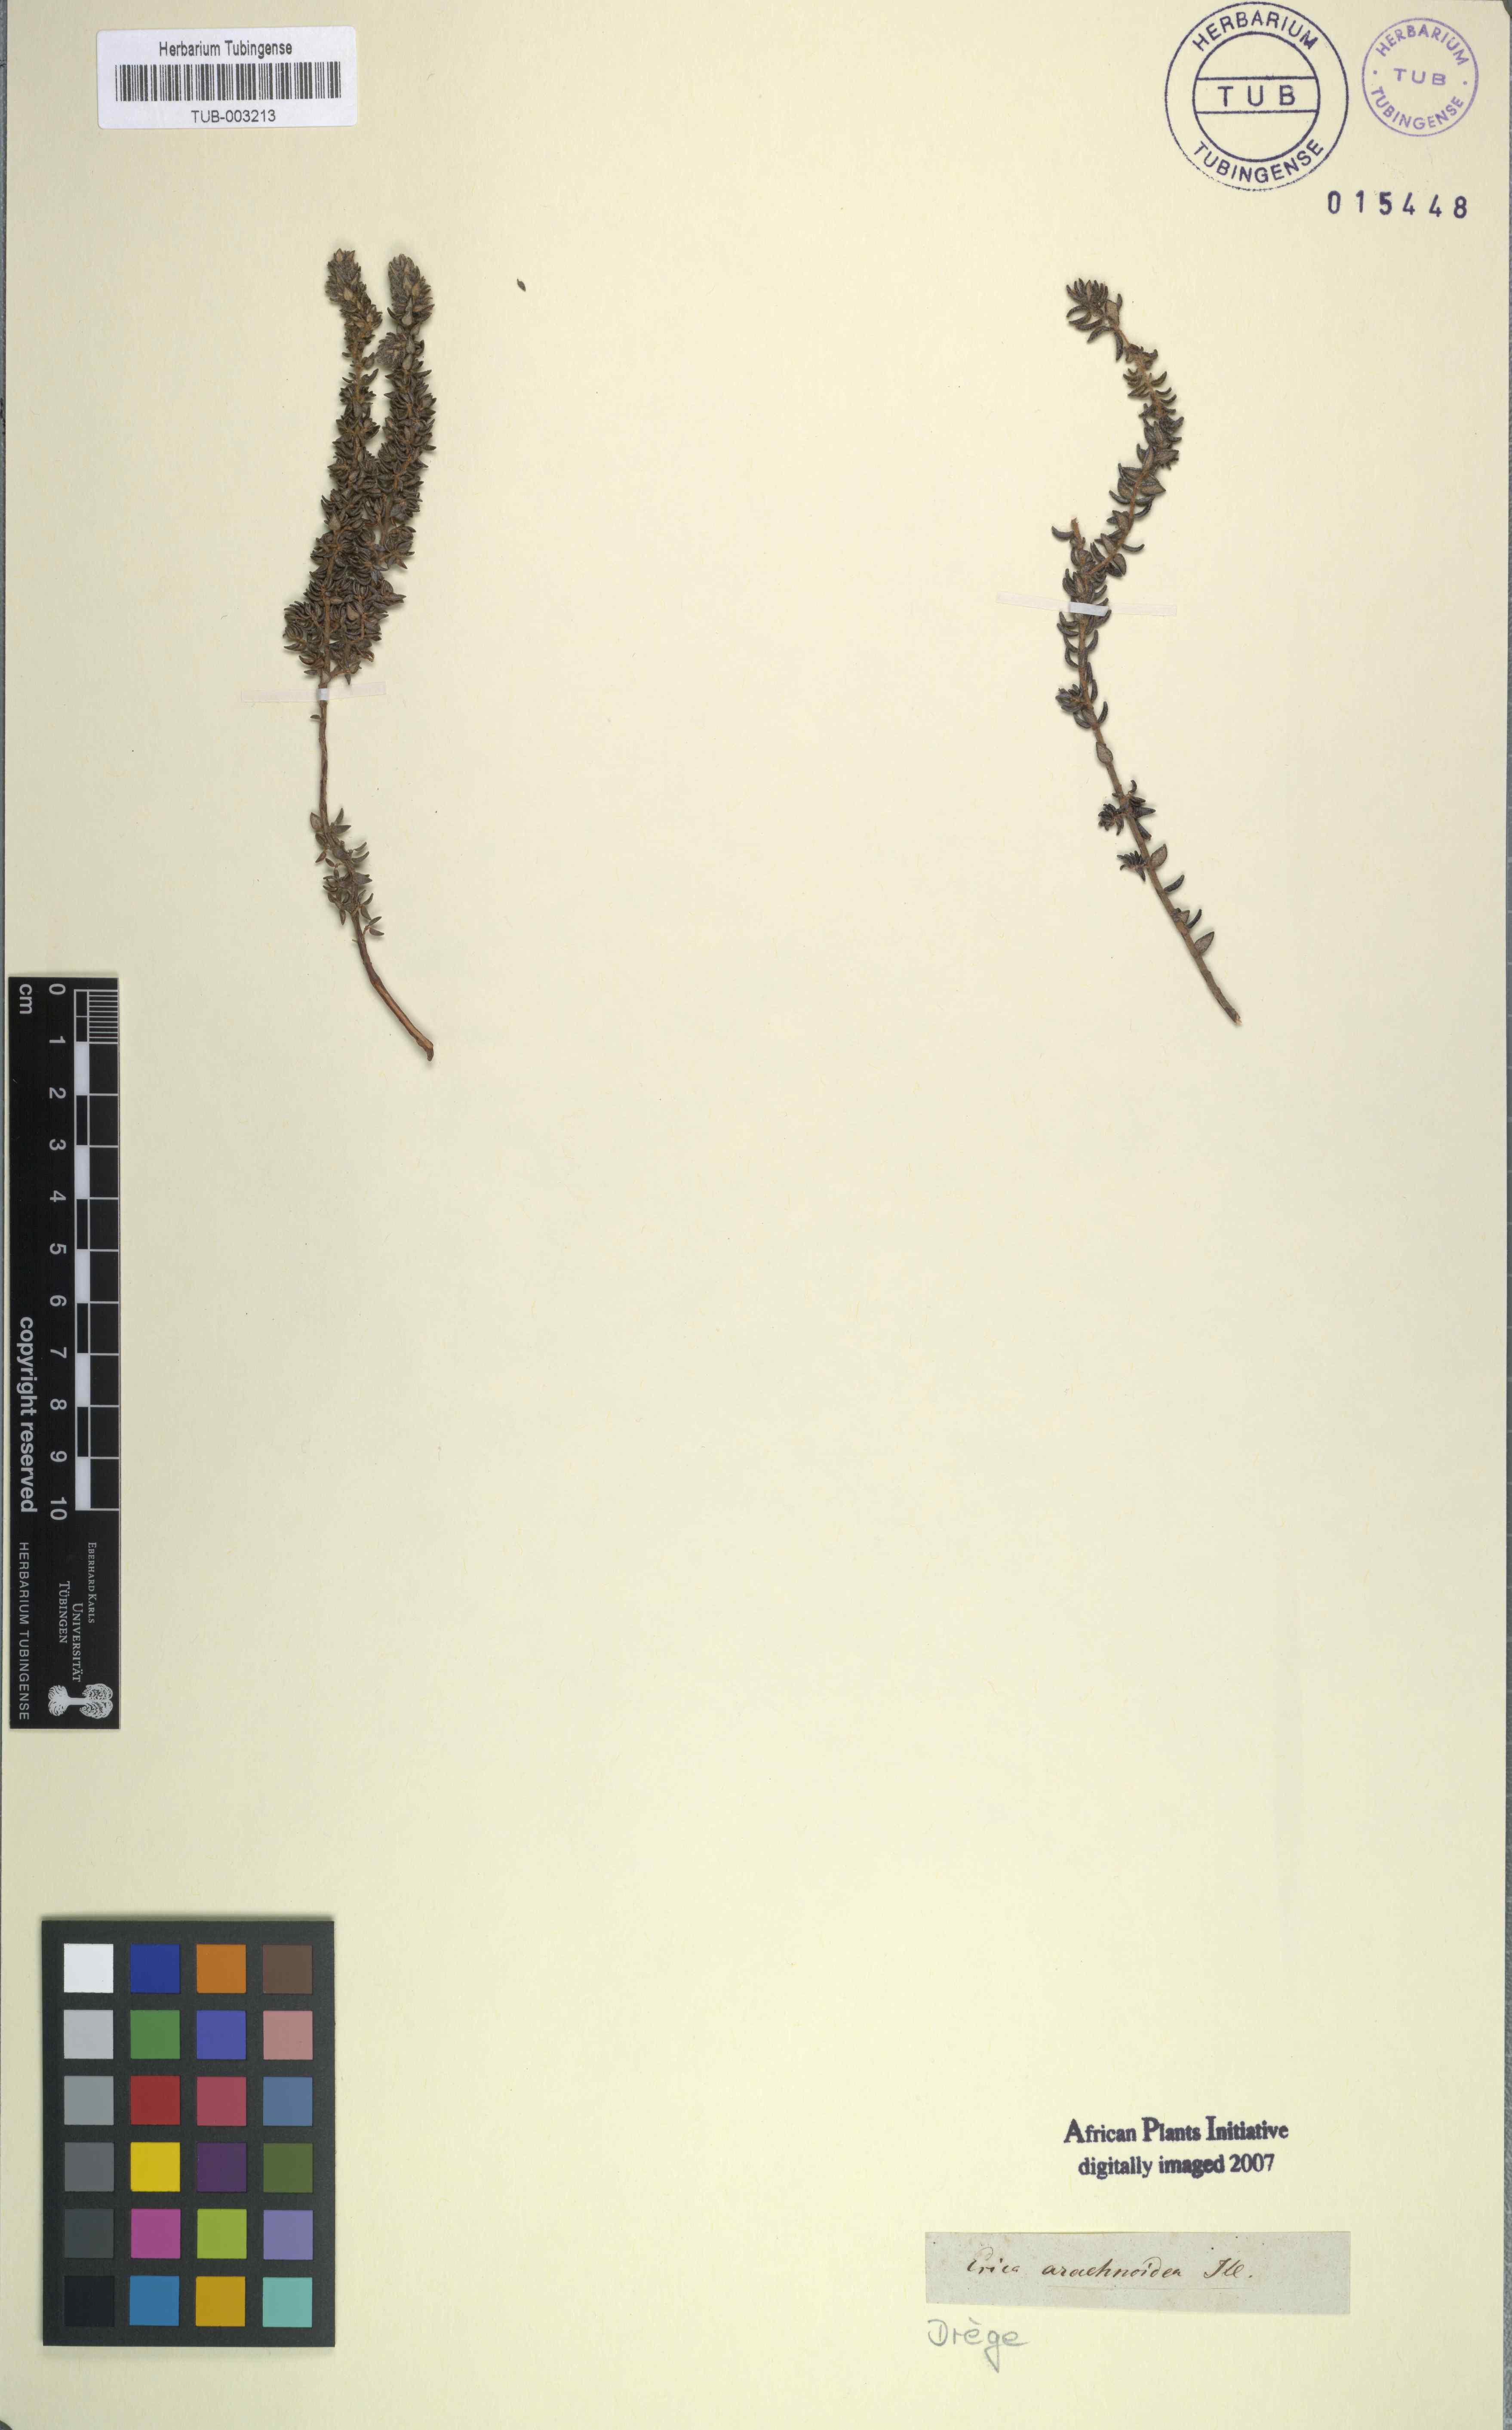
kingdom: Plantae
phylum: Tracheophyta
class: Magnoliopsida
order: Ericales
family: Ericaceae
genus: Erica
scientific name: Erica hispidula
